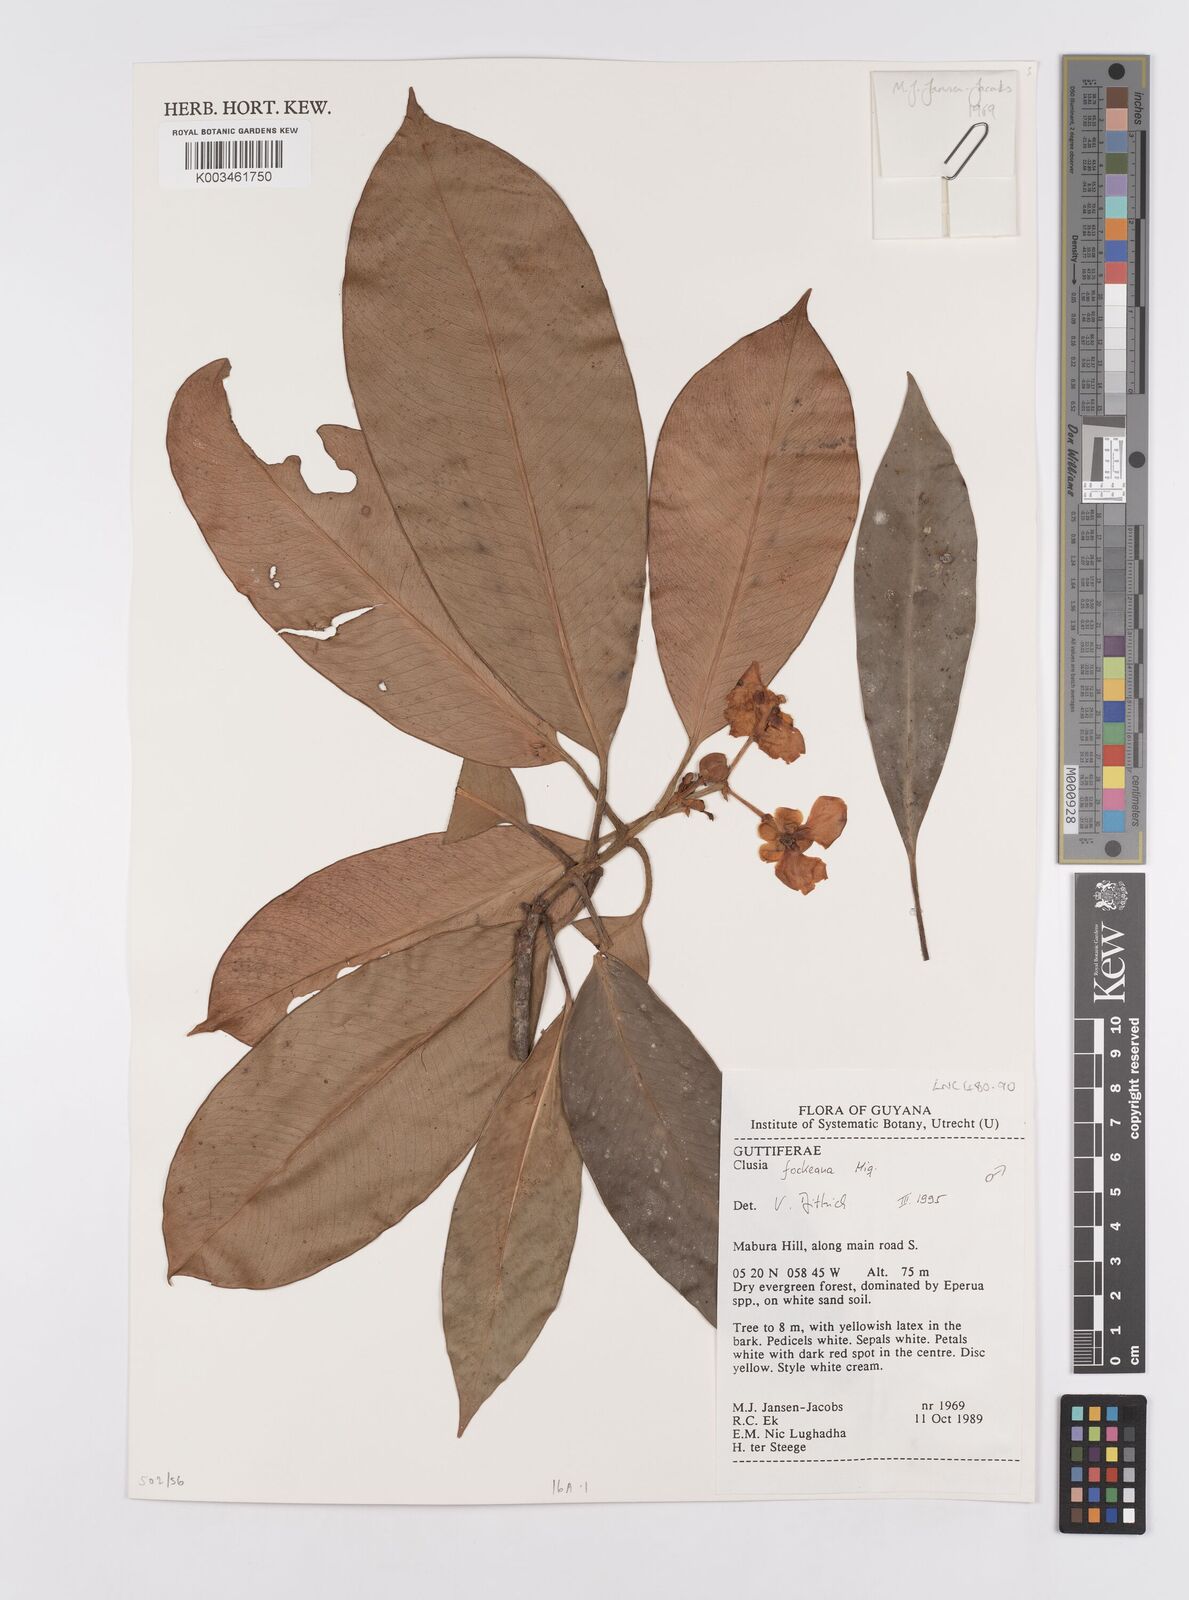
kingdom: Plantae
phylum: Tracheophyta
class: Magnoliopsida
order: Malpighiales
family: Clusiaceae
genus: Clusia
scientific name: Clusia fockeana
